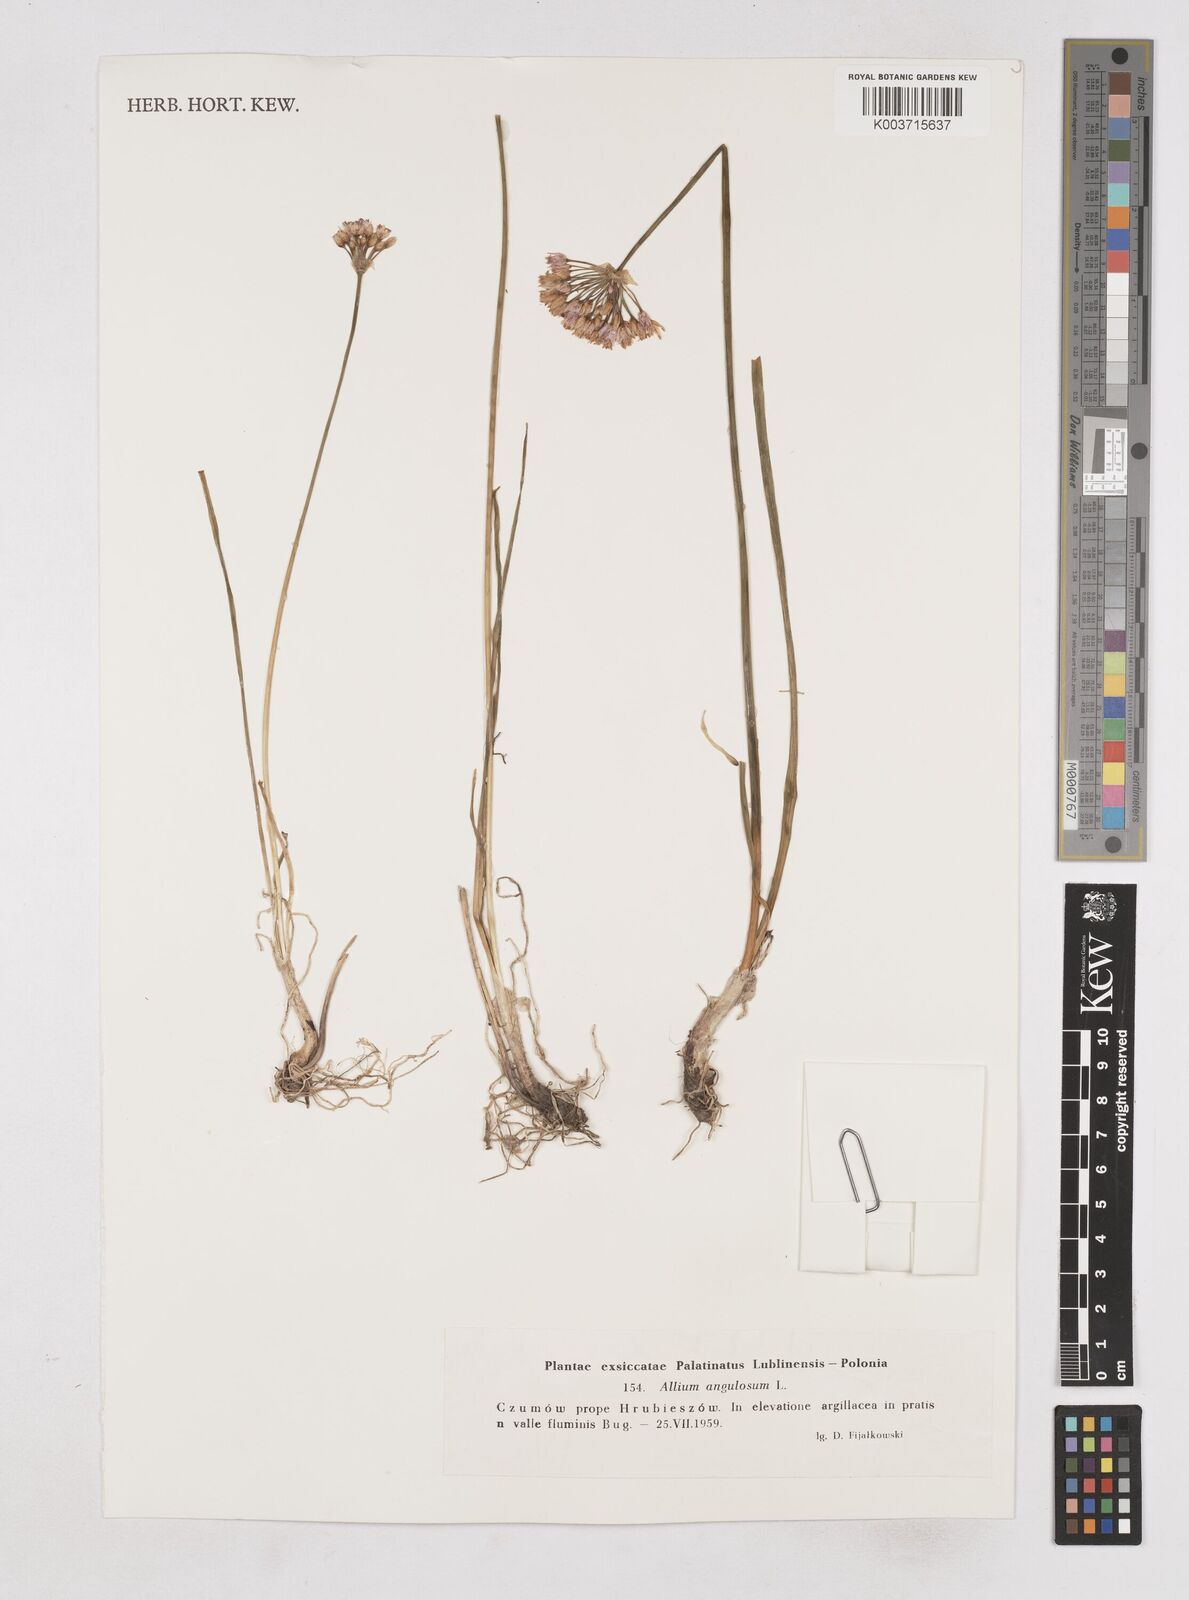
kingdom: Plantae
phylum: Tracheophyta
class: Liliopsida
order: Asparagales
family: Amaryllidaceae
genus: Allium
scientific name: Allium angulosum
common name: Mouse garlic
